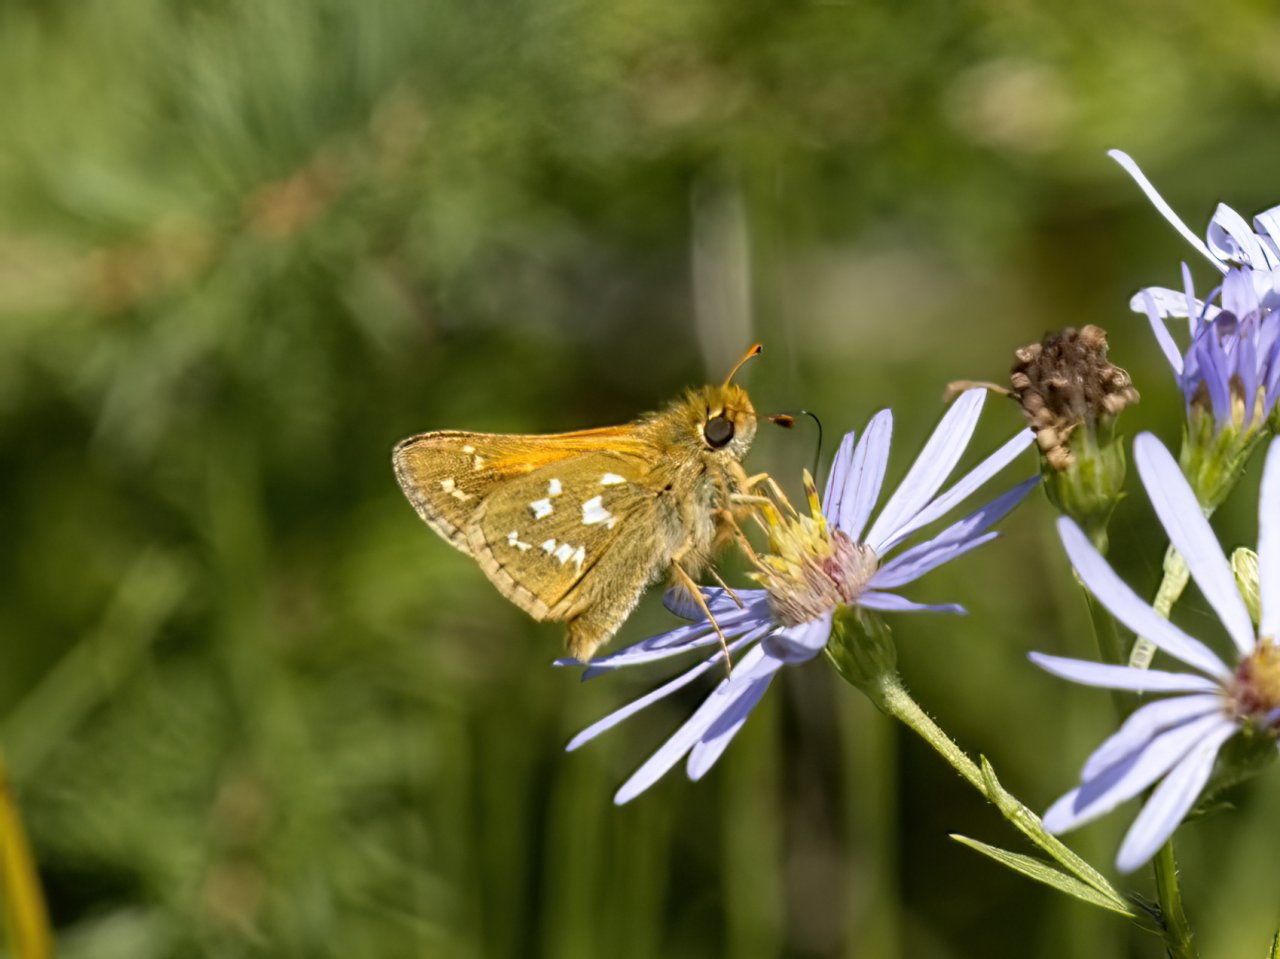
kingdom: Animalia
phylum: Arthropoda
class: Insecta
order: Lepidoptera
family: Hesperiidae
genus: Hesperia
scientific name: Hesperia comma
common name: Common Branded Skipper
